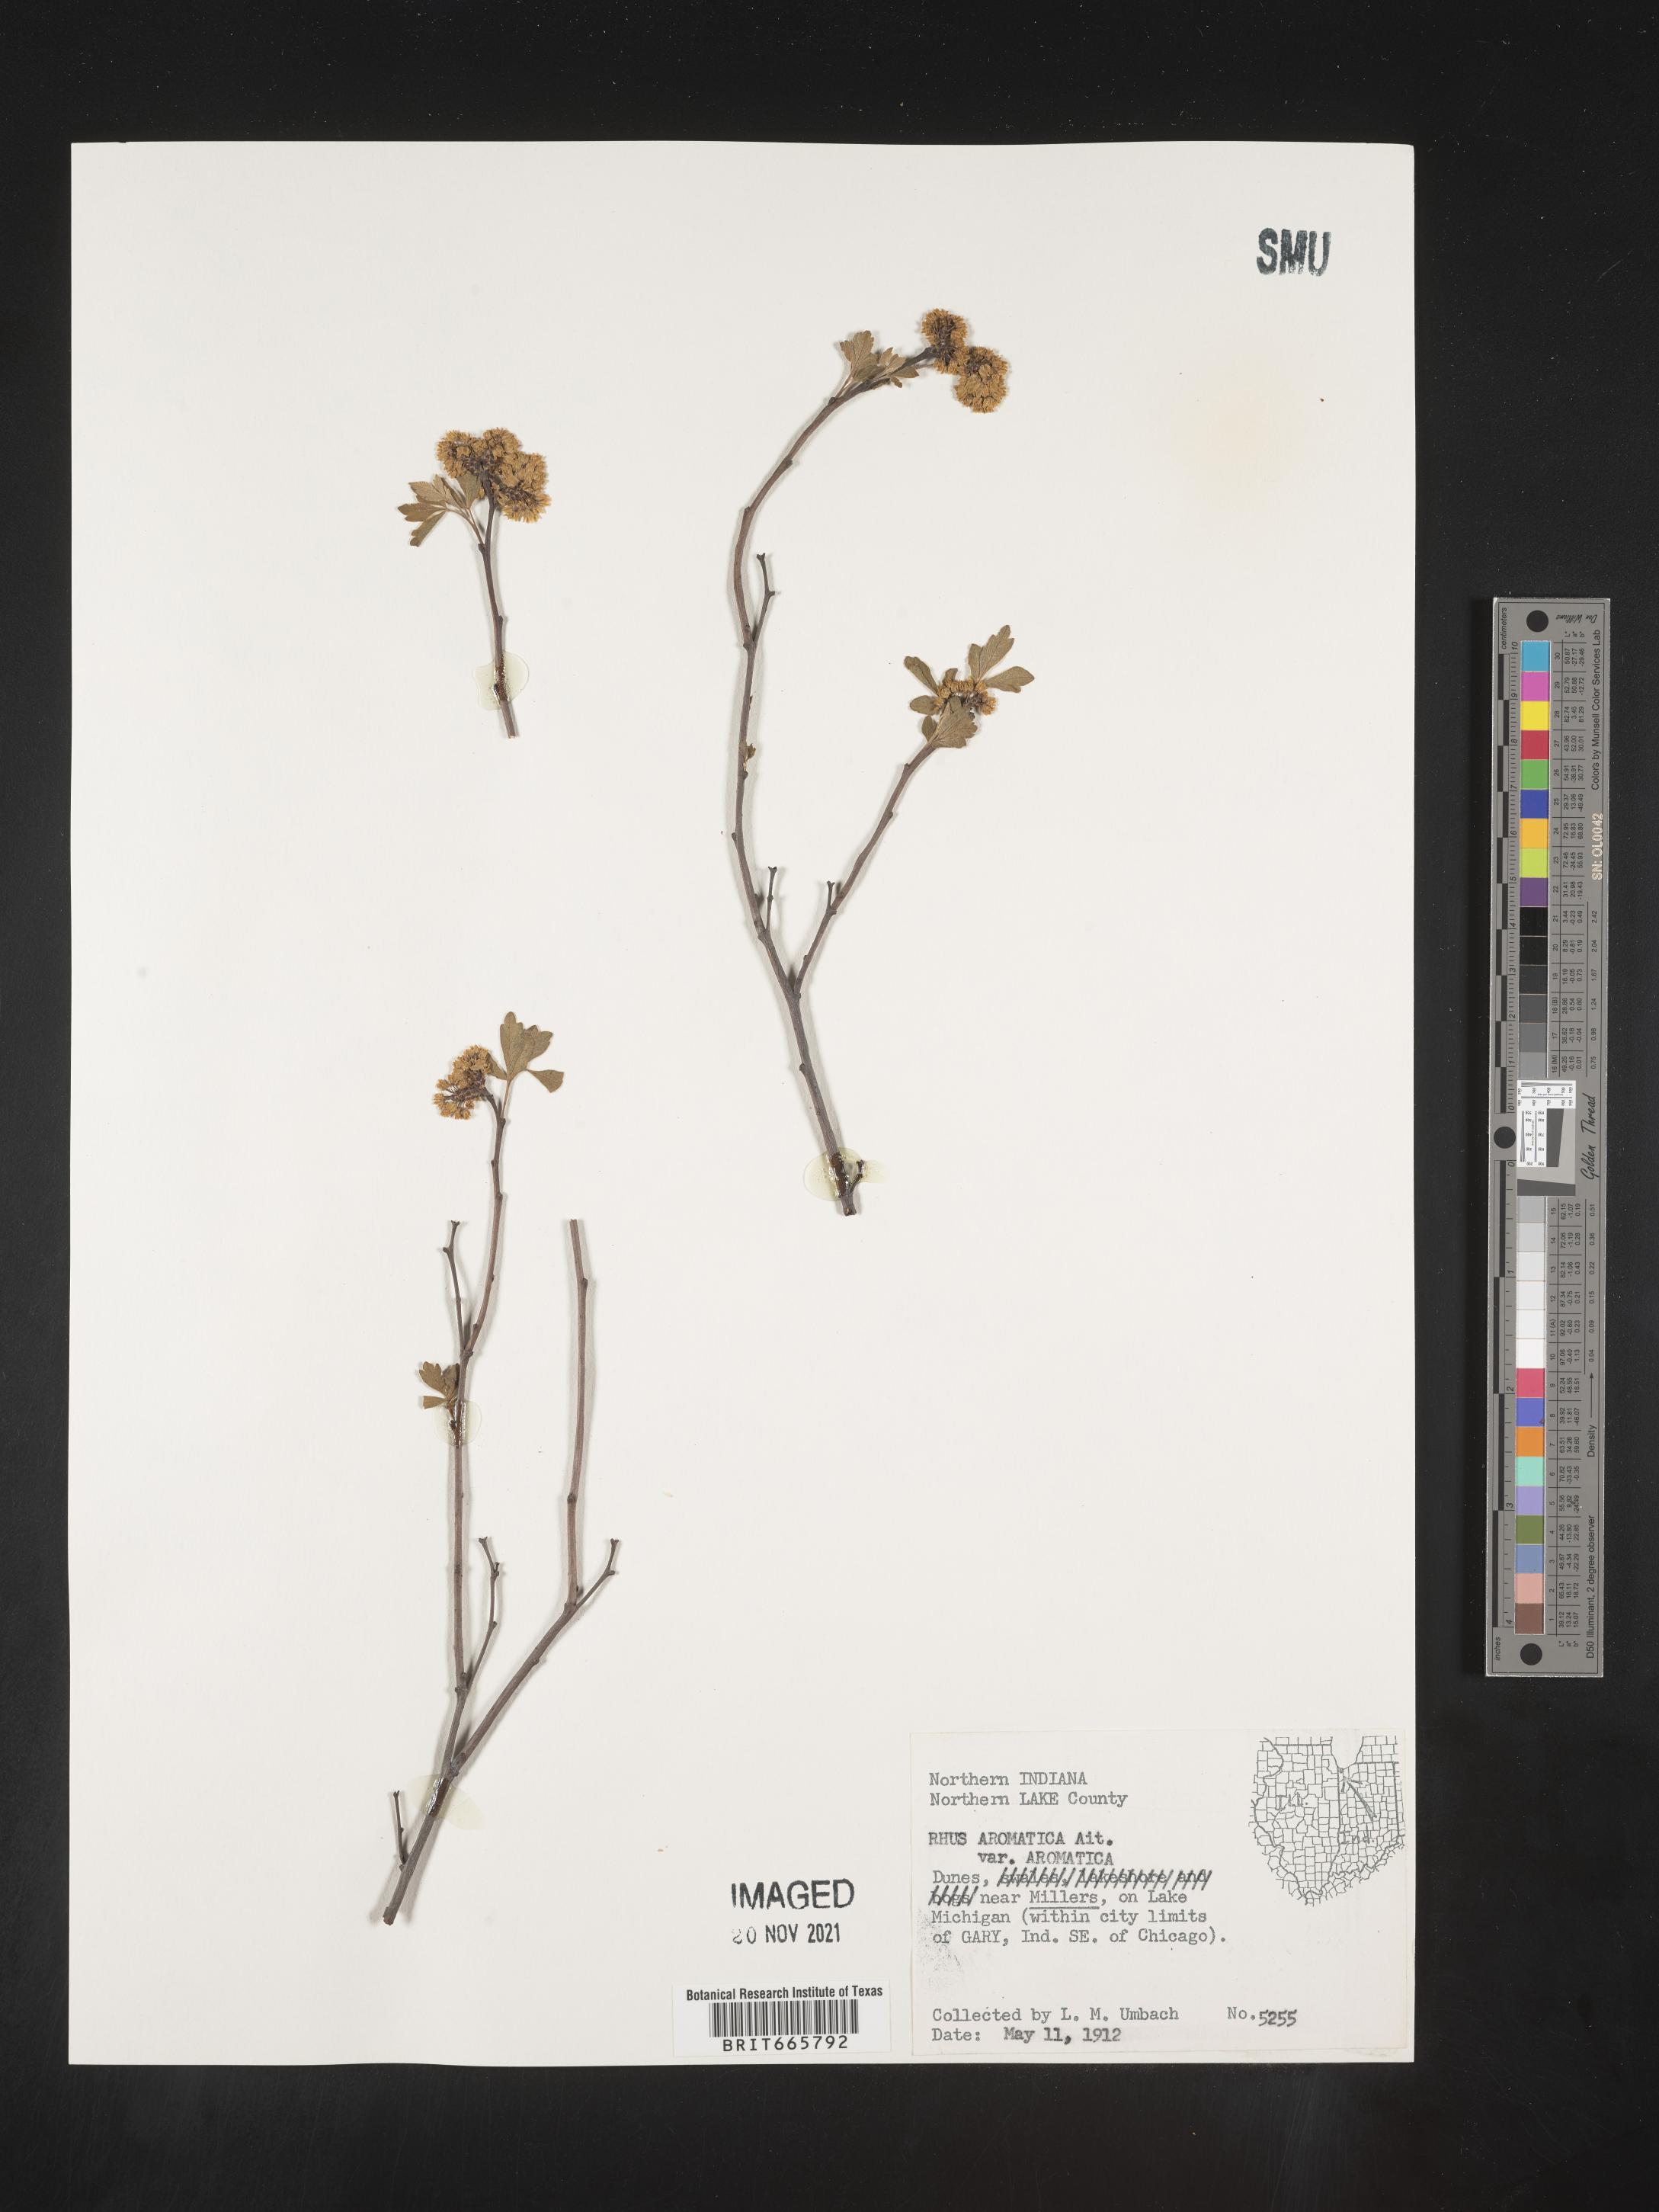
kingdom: Plantae
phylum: Tracheophyta
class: Magnoliopsida
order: Sapindales
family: Anacardiaceae
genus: Rhus
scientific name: Rhus aromatica
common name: Aromatic sumac
